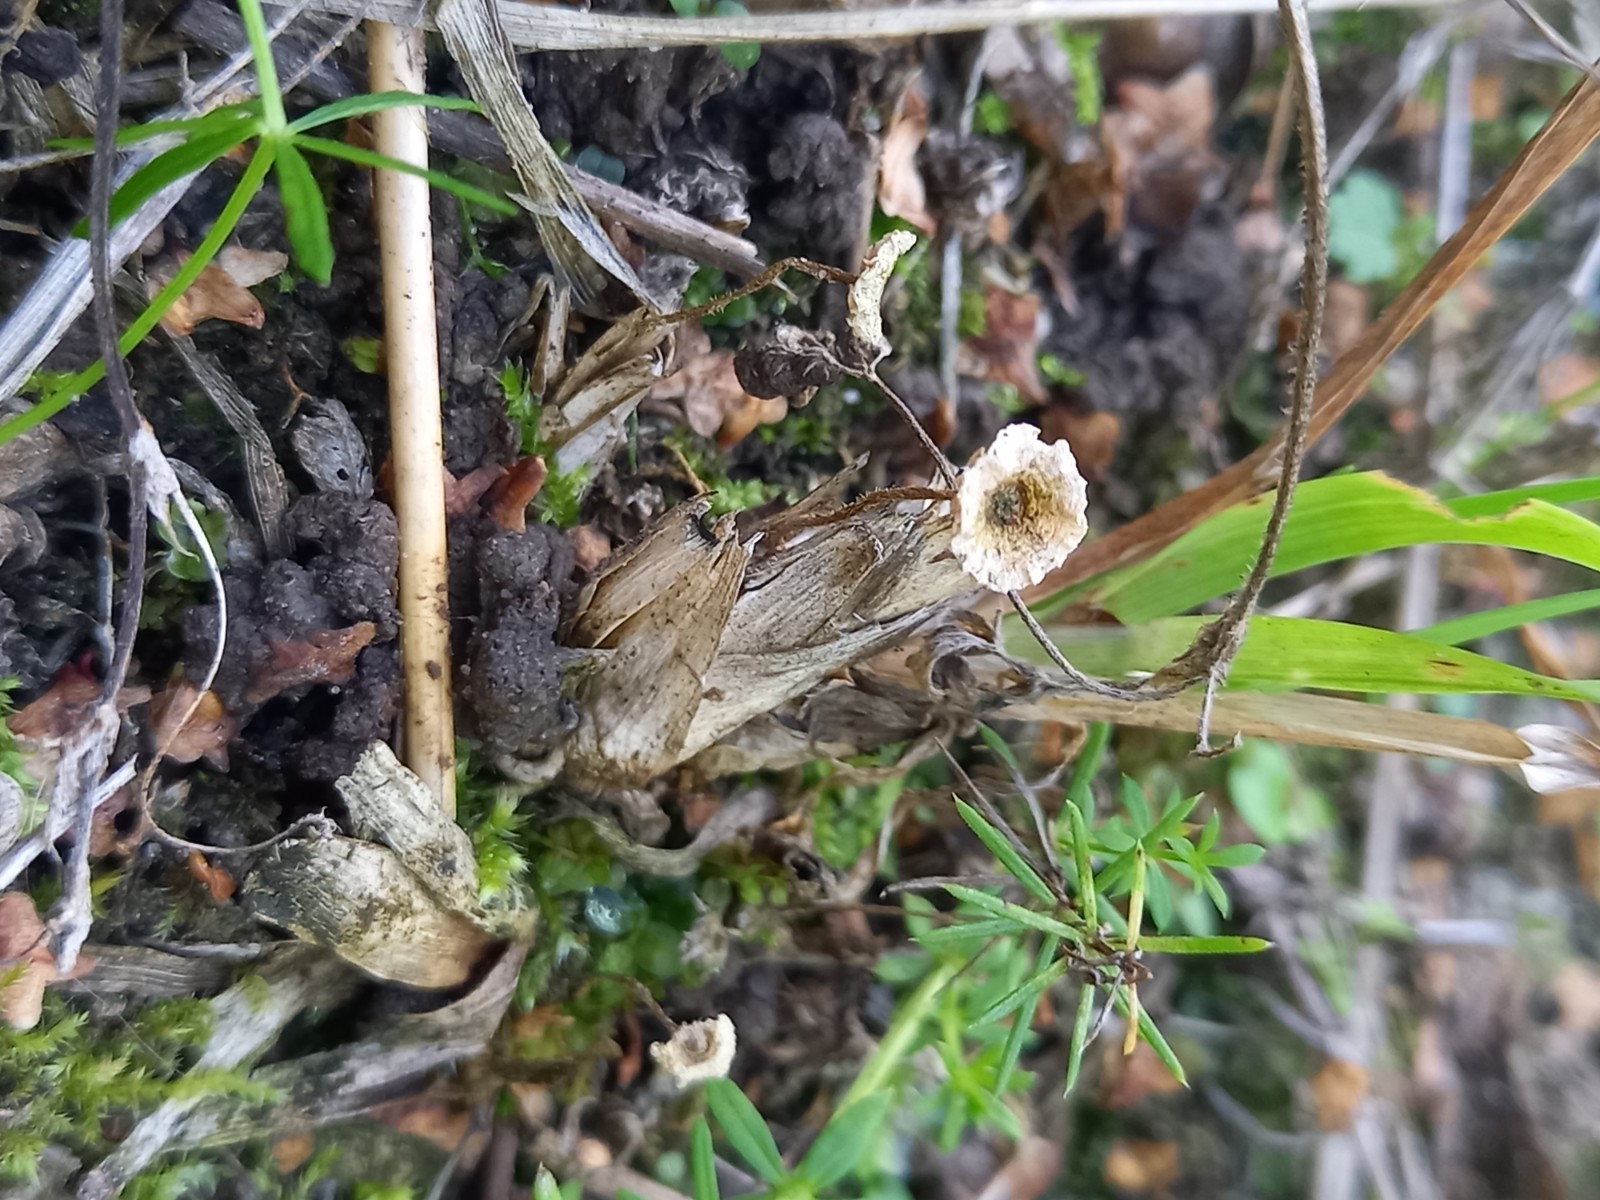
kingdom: Fungi
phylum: Basidiomycota
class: Agaricomycetes
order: Agaricales
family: Marasmiaceae
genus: Crinipellis
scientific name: Crinipellis scabella
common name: børstefod
